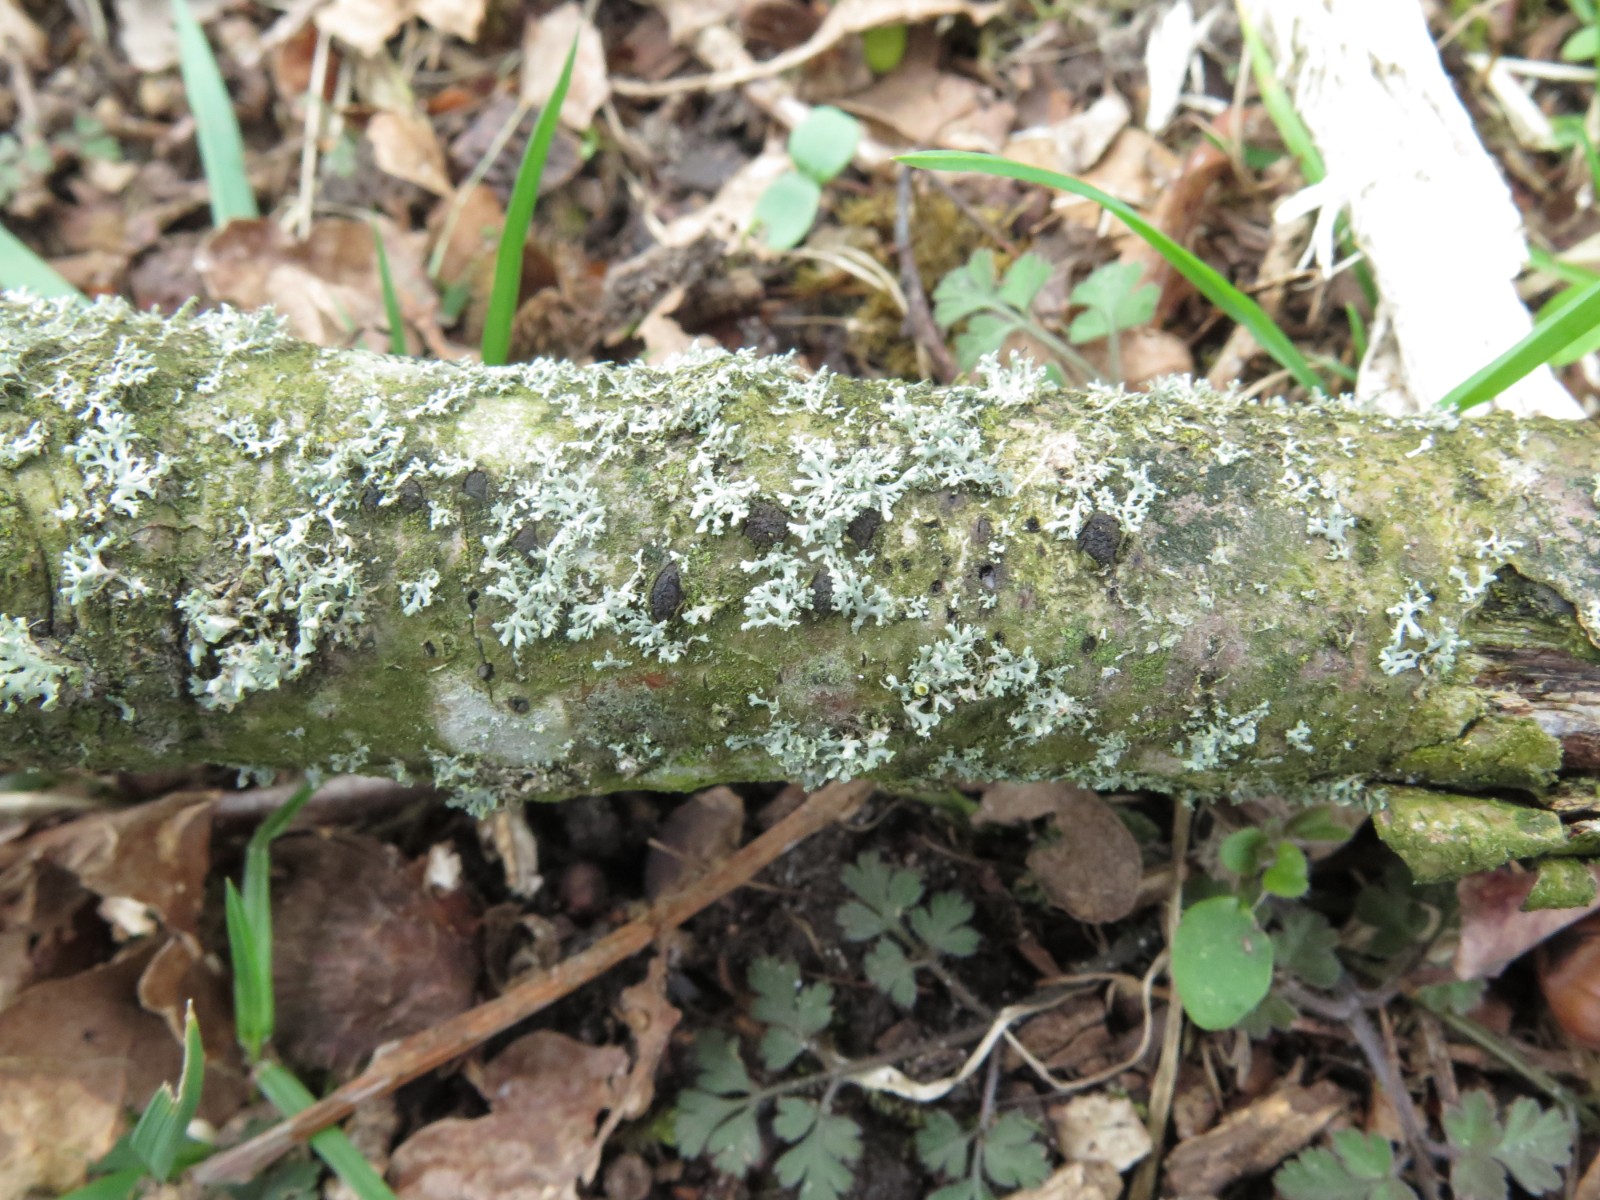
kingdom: Fungi
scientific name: Fungi
